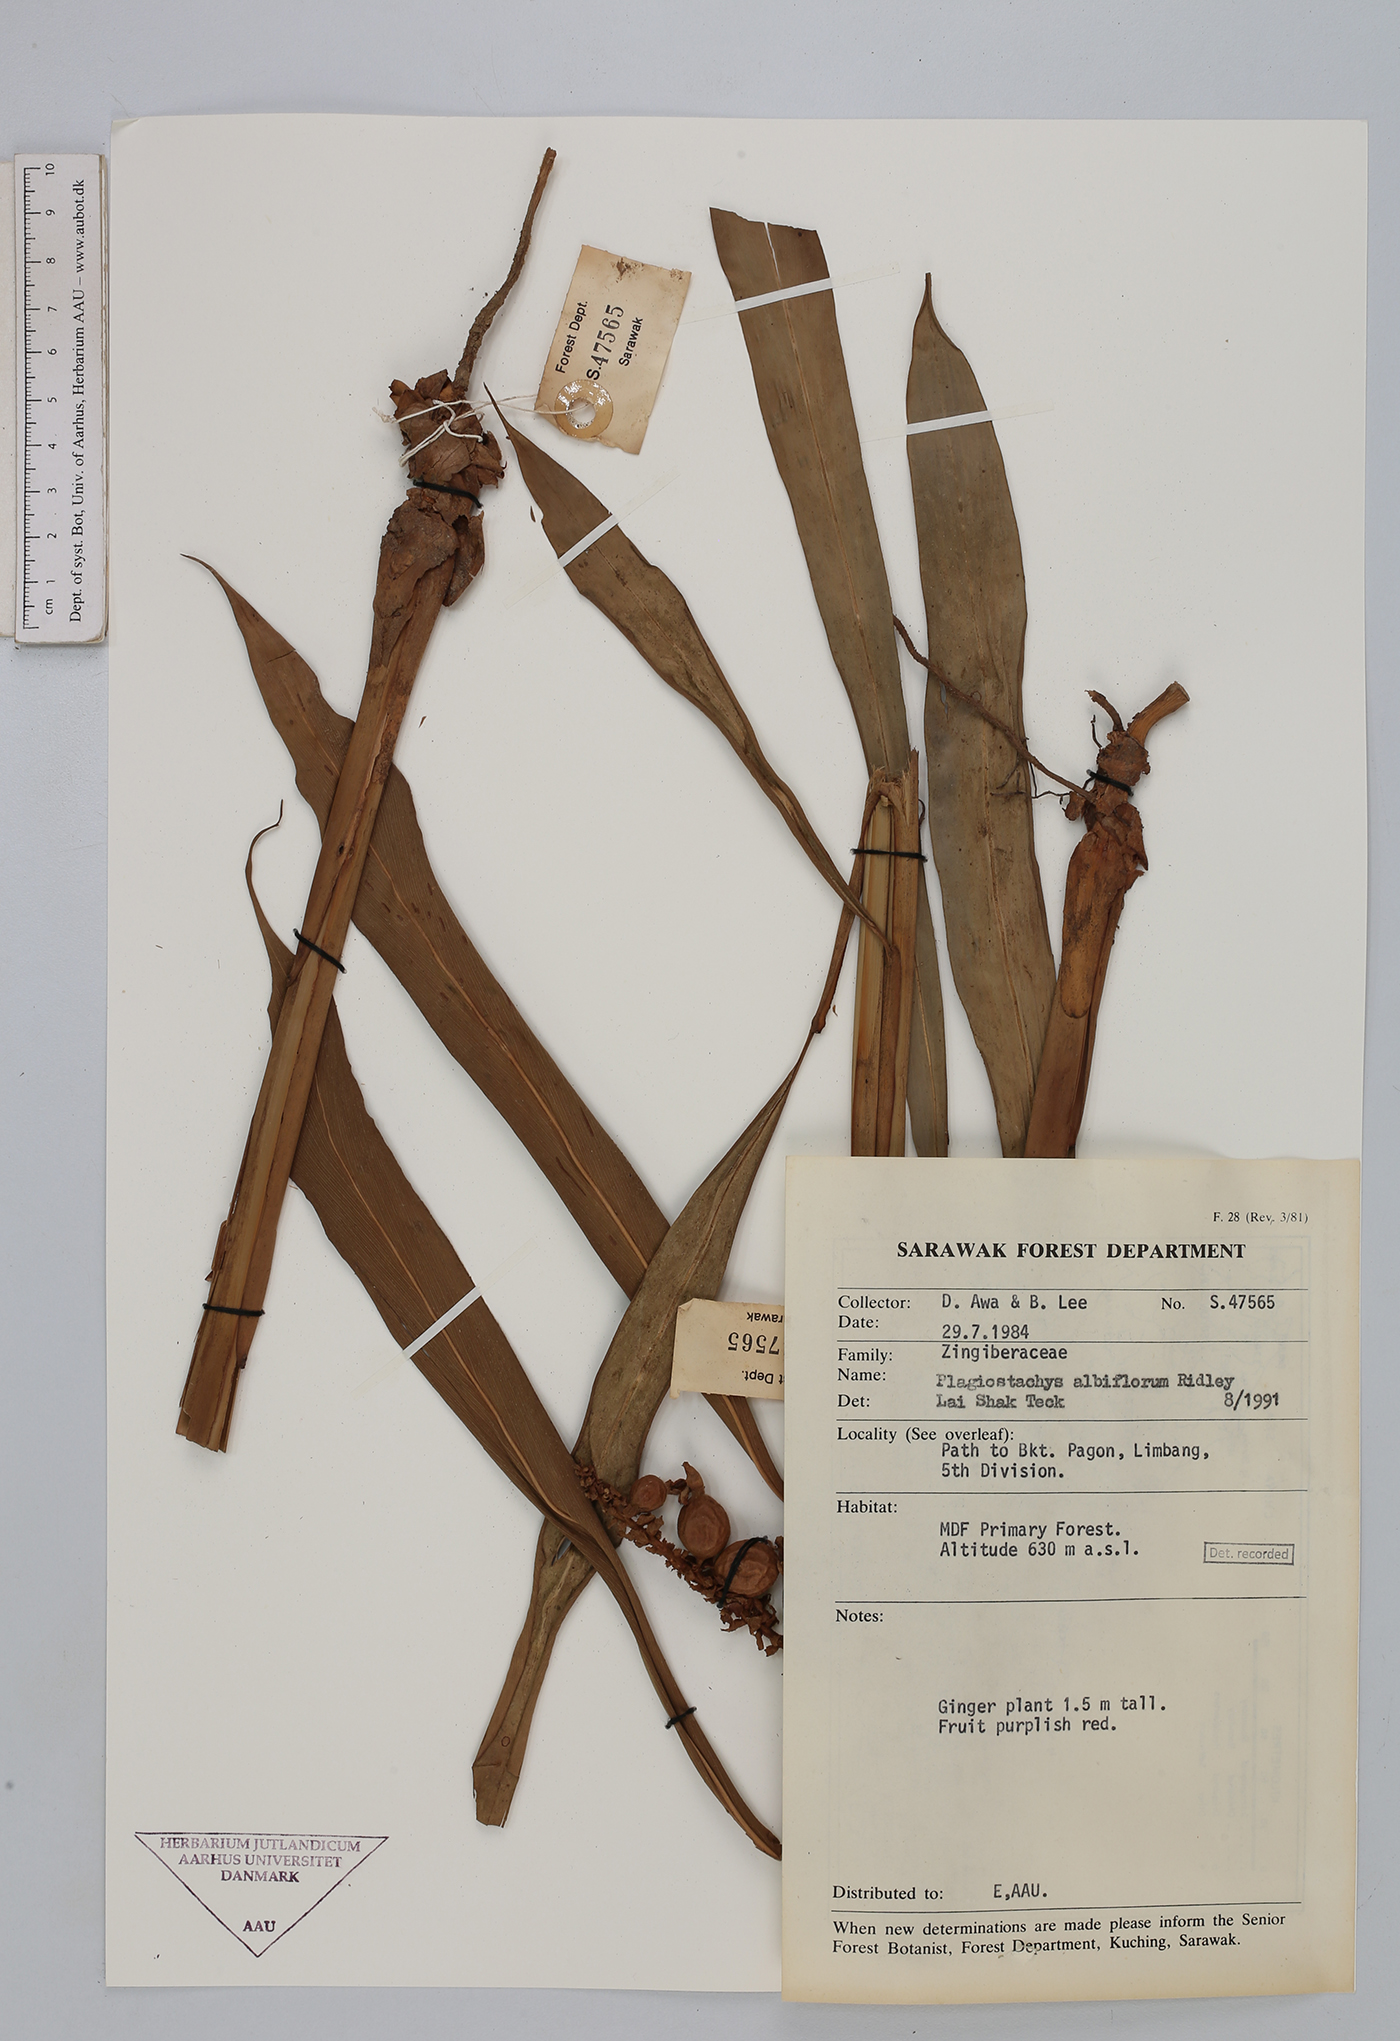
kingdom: Plantae
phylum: Tracheophyta
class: Liliopsida
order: Zingiberales
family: Zingiberaceae
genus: Plagiostachys
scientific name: Plagiostachys albiflora
